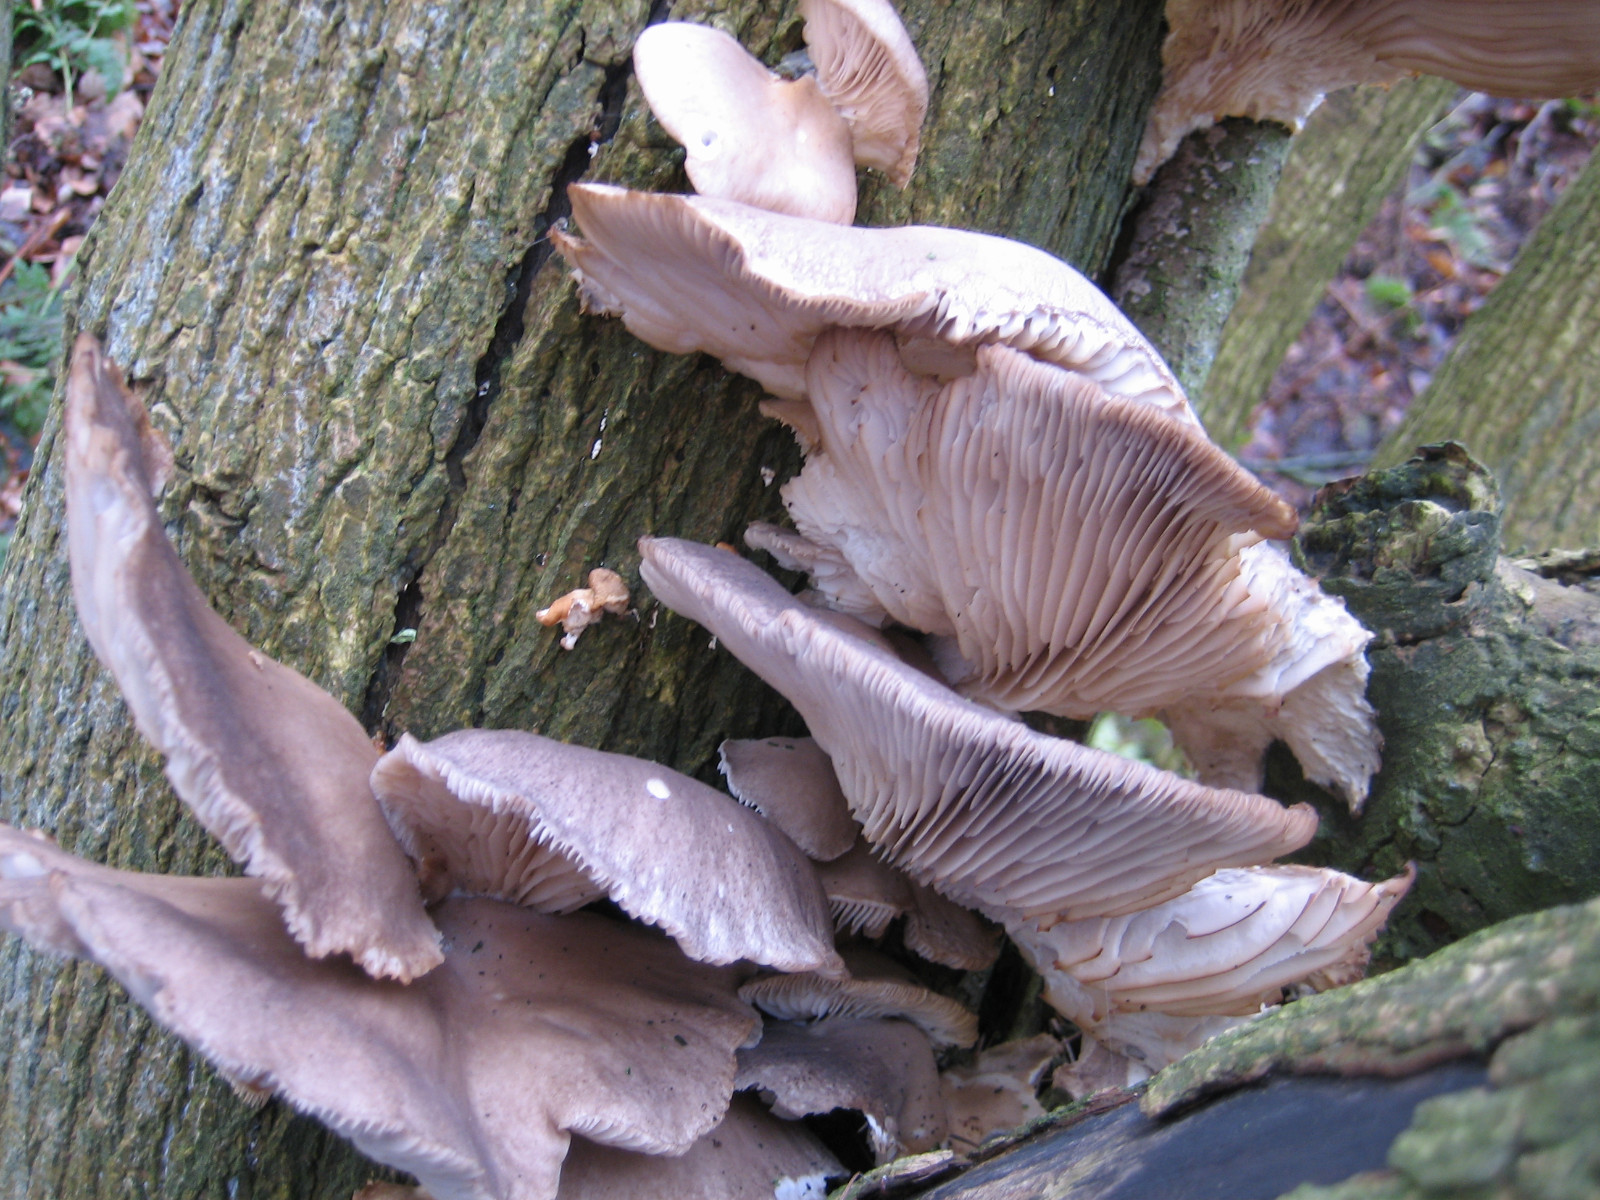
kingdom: Fungi
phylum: Basidiomycota
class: Agaricomycetes
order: Agaricales
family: Pleurotaceae
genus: Pleurotus
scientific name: Pleurotus ostreatus
